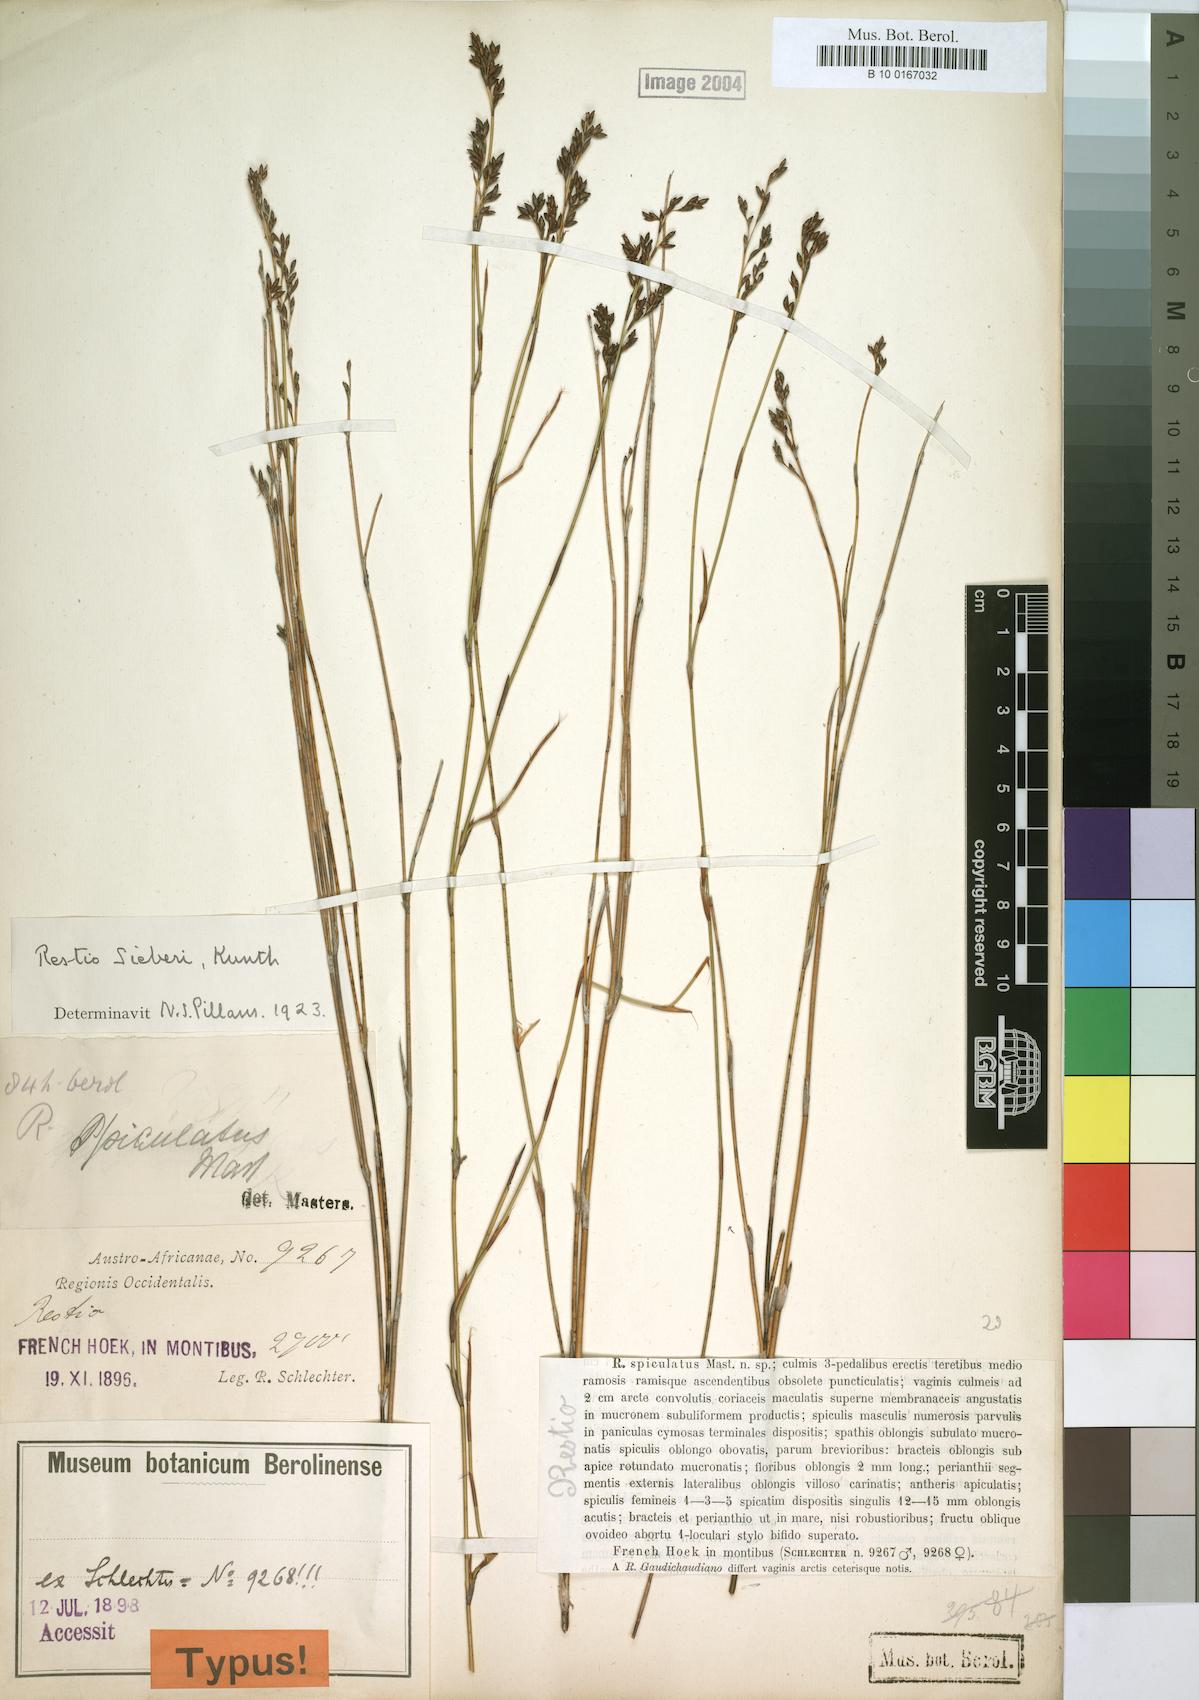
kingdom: Plantae
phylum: Tracheophyta
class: Liliopsida
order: Poales
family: Restionaceae
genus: Restio
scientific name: Restio sieberi
